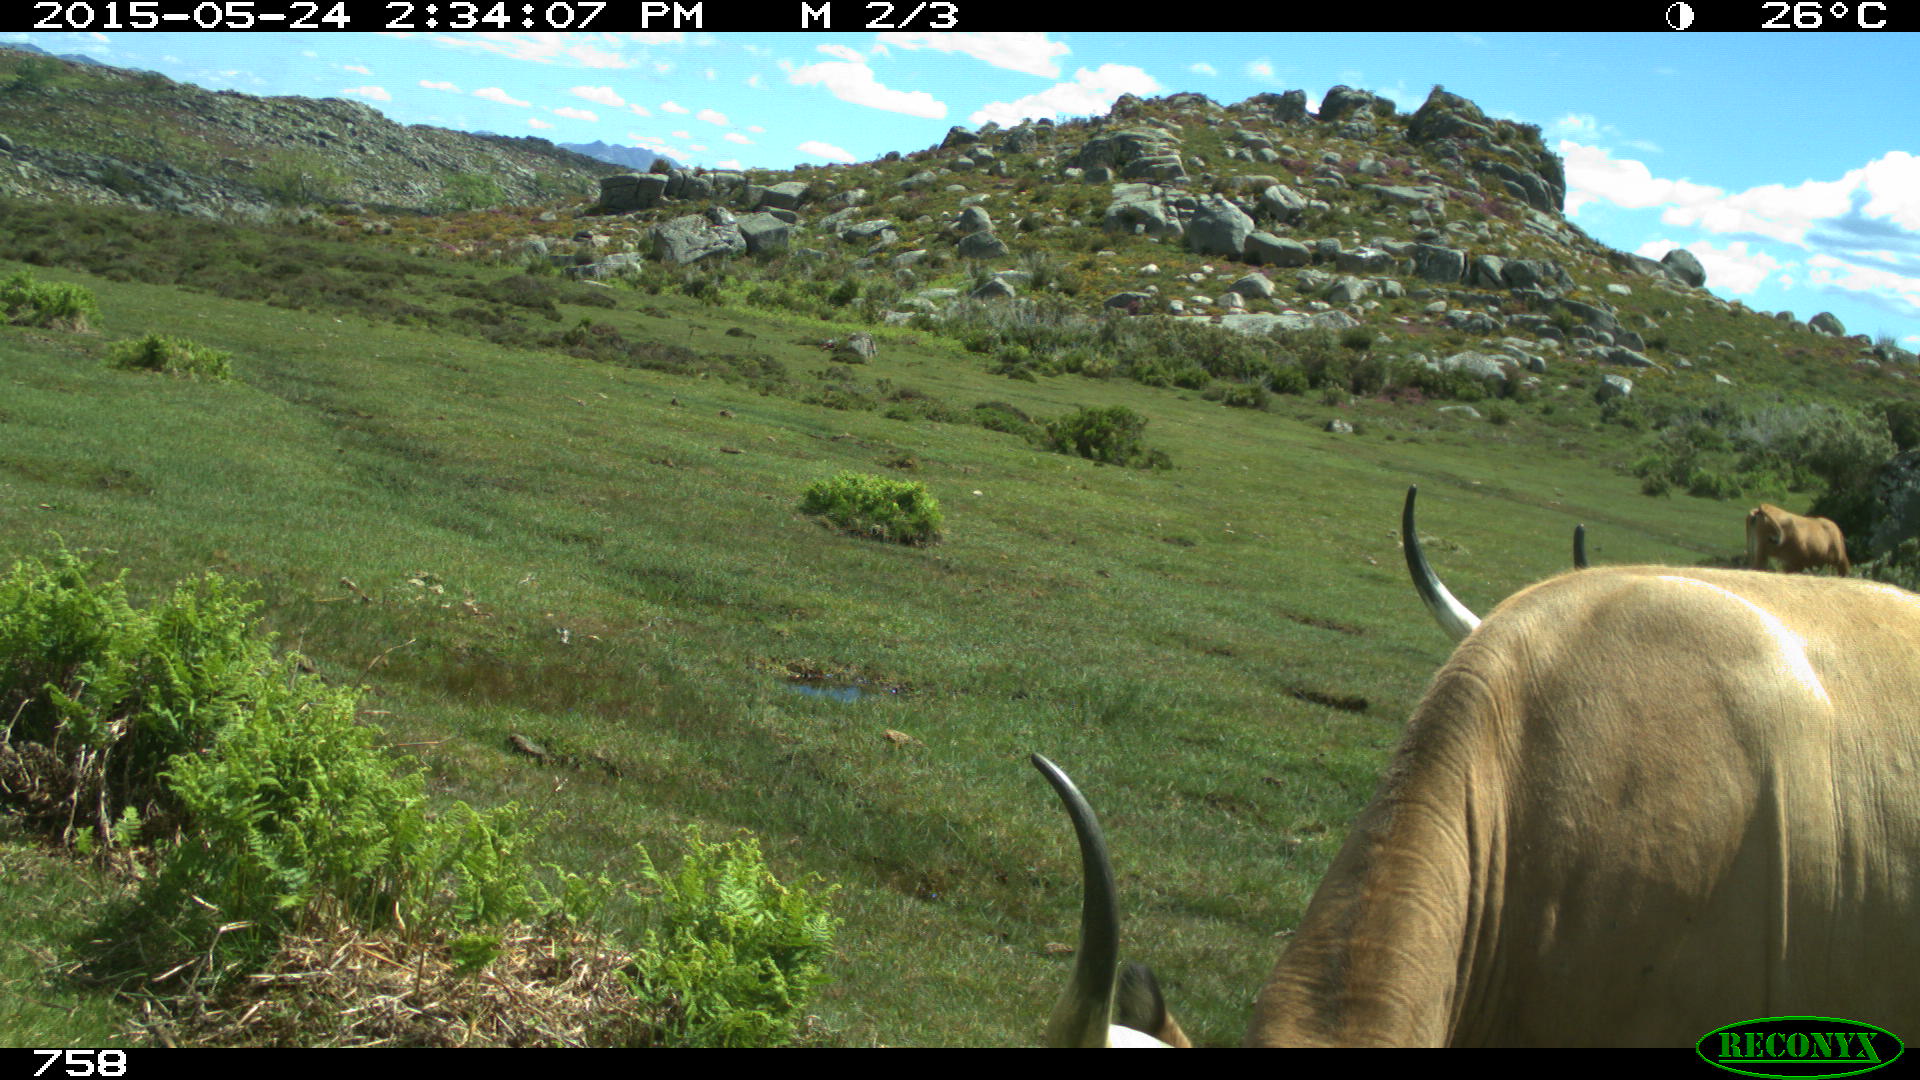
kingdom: Animalia
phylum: Chordata
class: Mammalia
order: Artiodactyla
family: Bovidae
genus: Bos
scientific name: Bos taurus
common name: Domesticated cattle
